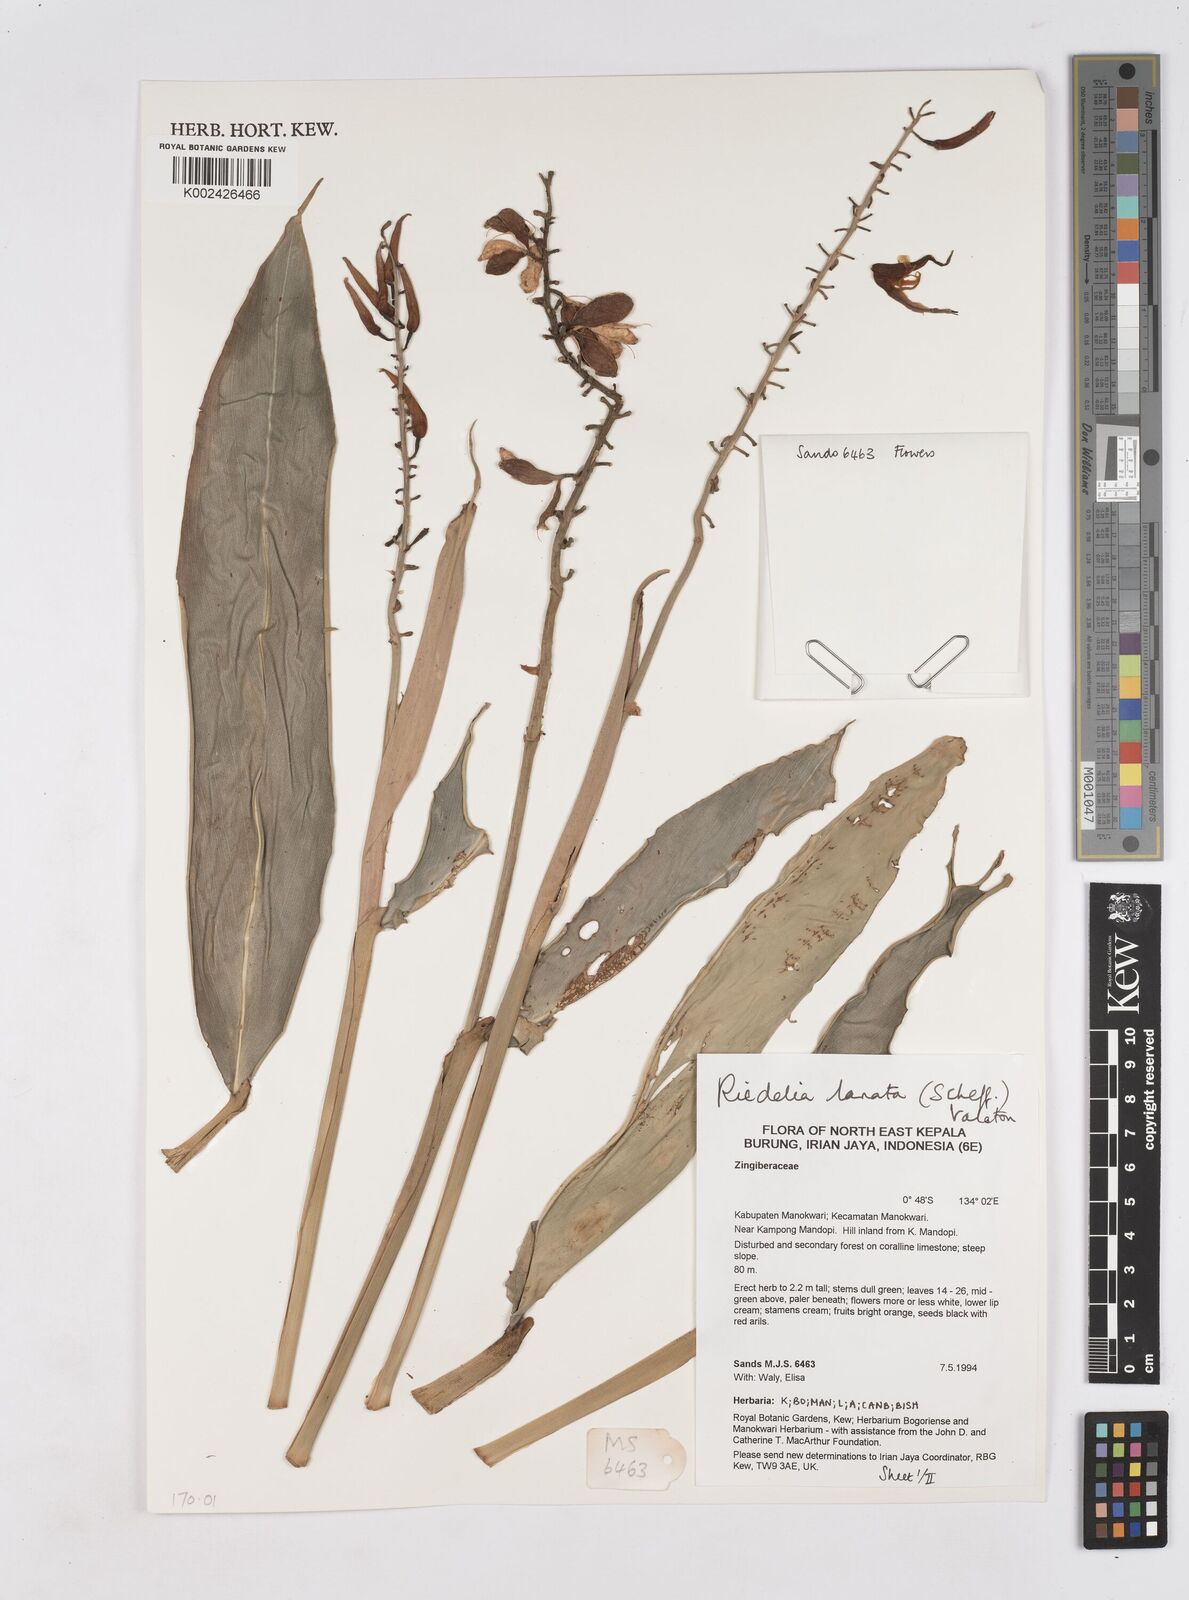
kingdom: Plantae
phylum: Tracheophyta
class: Liliopsida
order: Zingiberales
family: Zingiberaceae
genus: Riedelia
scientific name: Riedelia lanata
